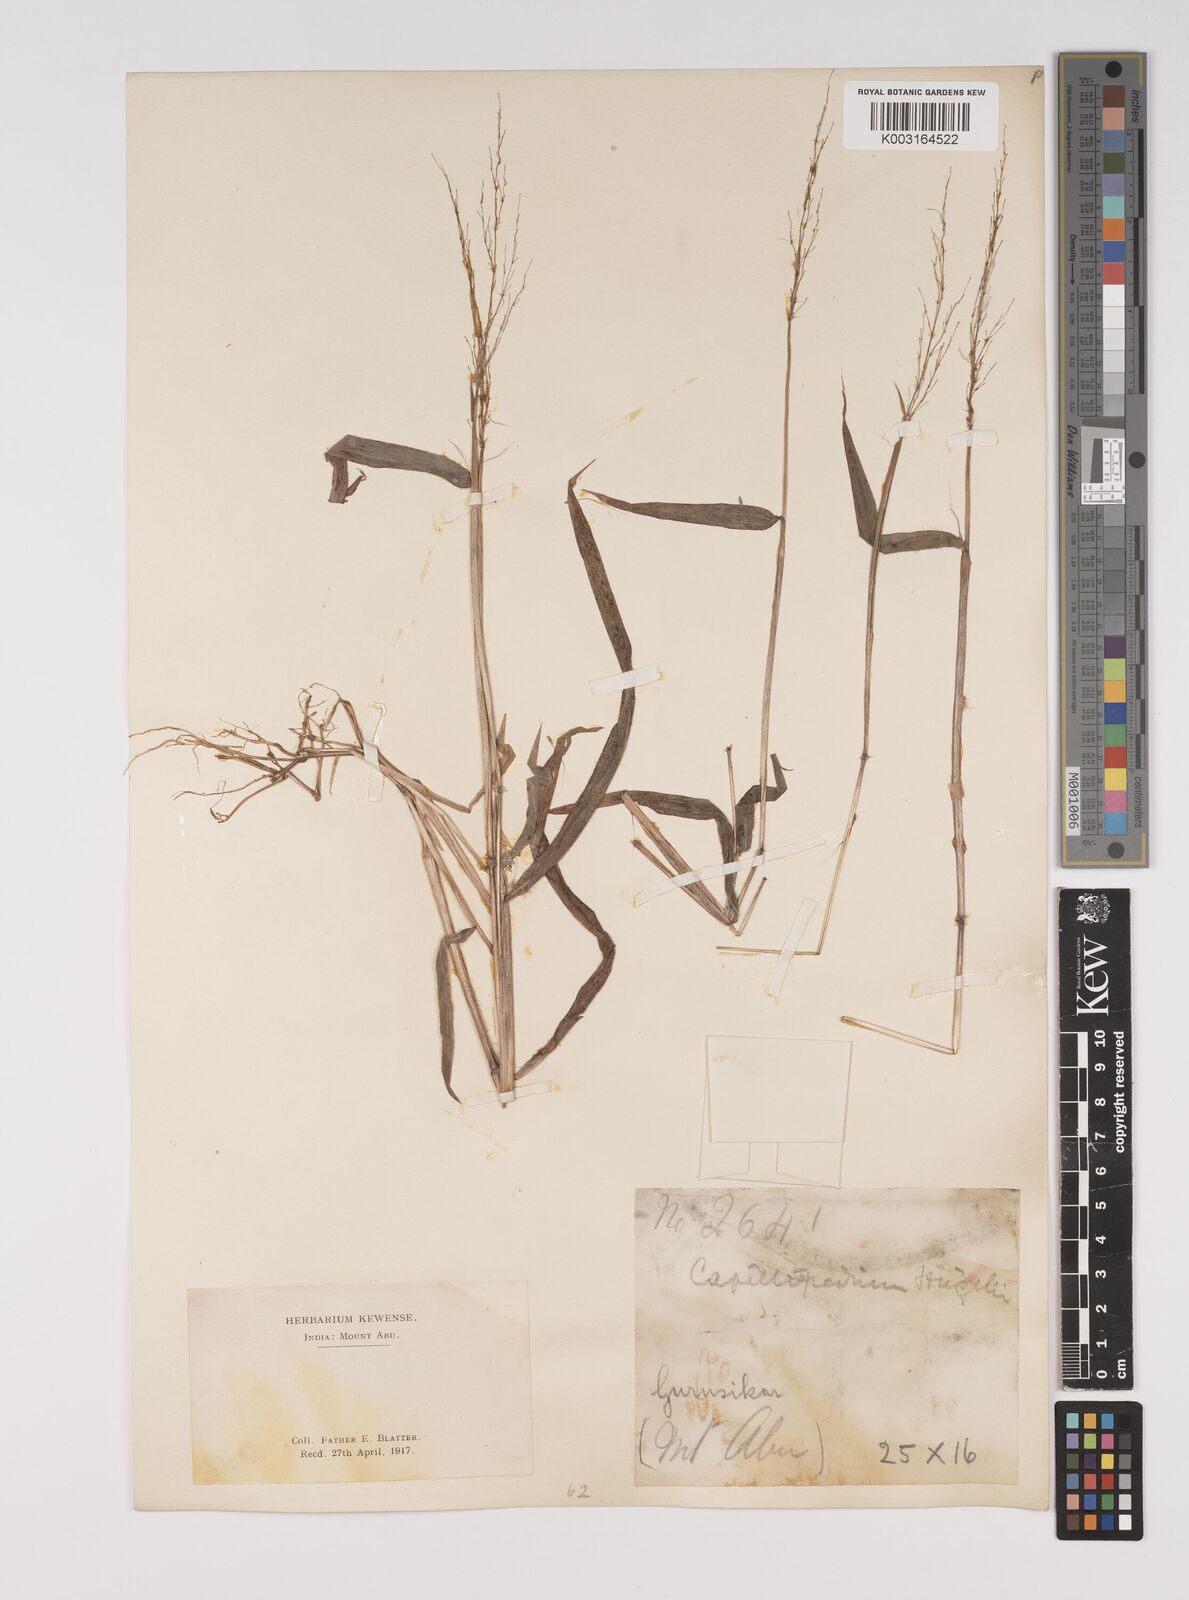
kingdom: Plantae
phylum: Tracheophyta
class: Liliopsida
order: Poales
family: Poaceae
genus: Capillipedium
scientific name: Capillipedium huegelii
